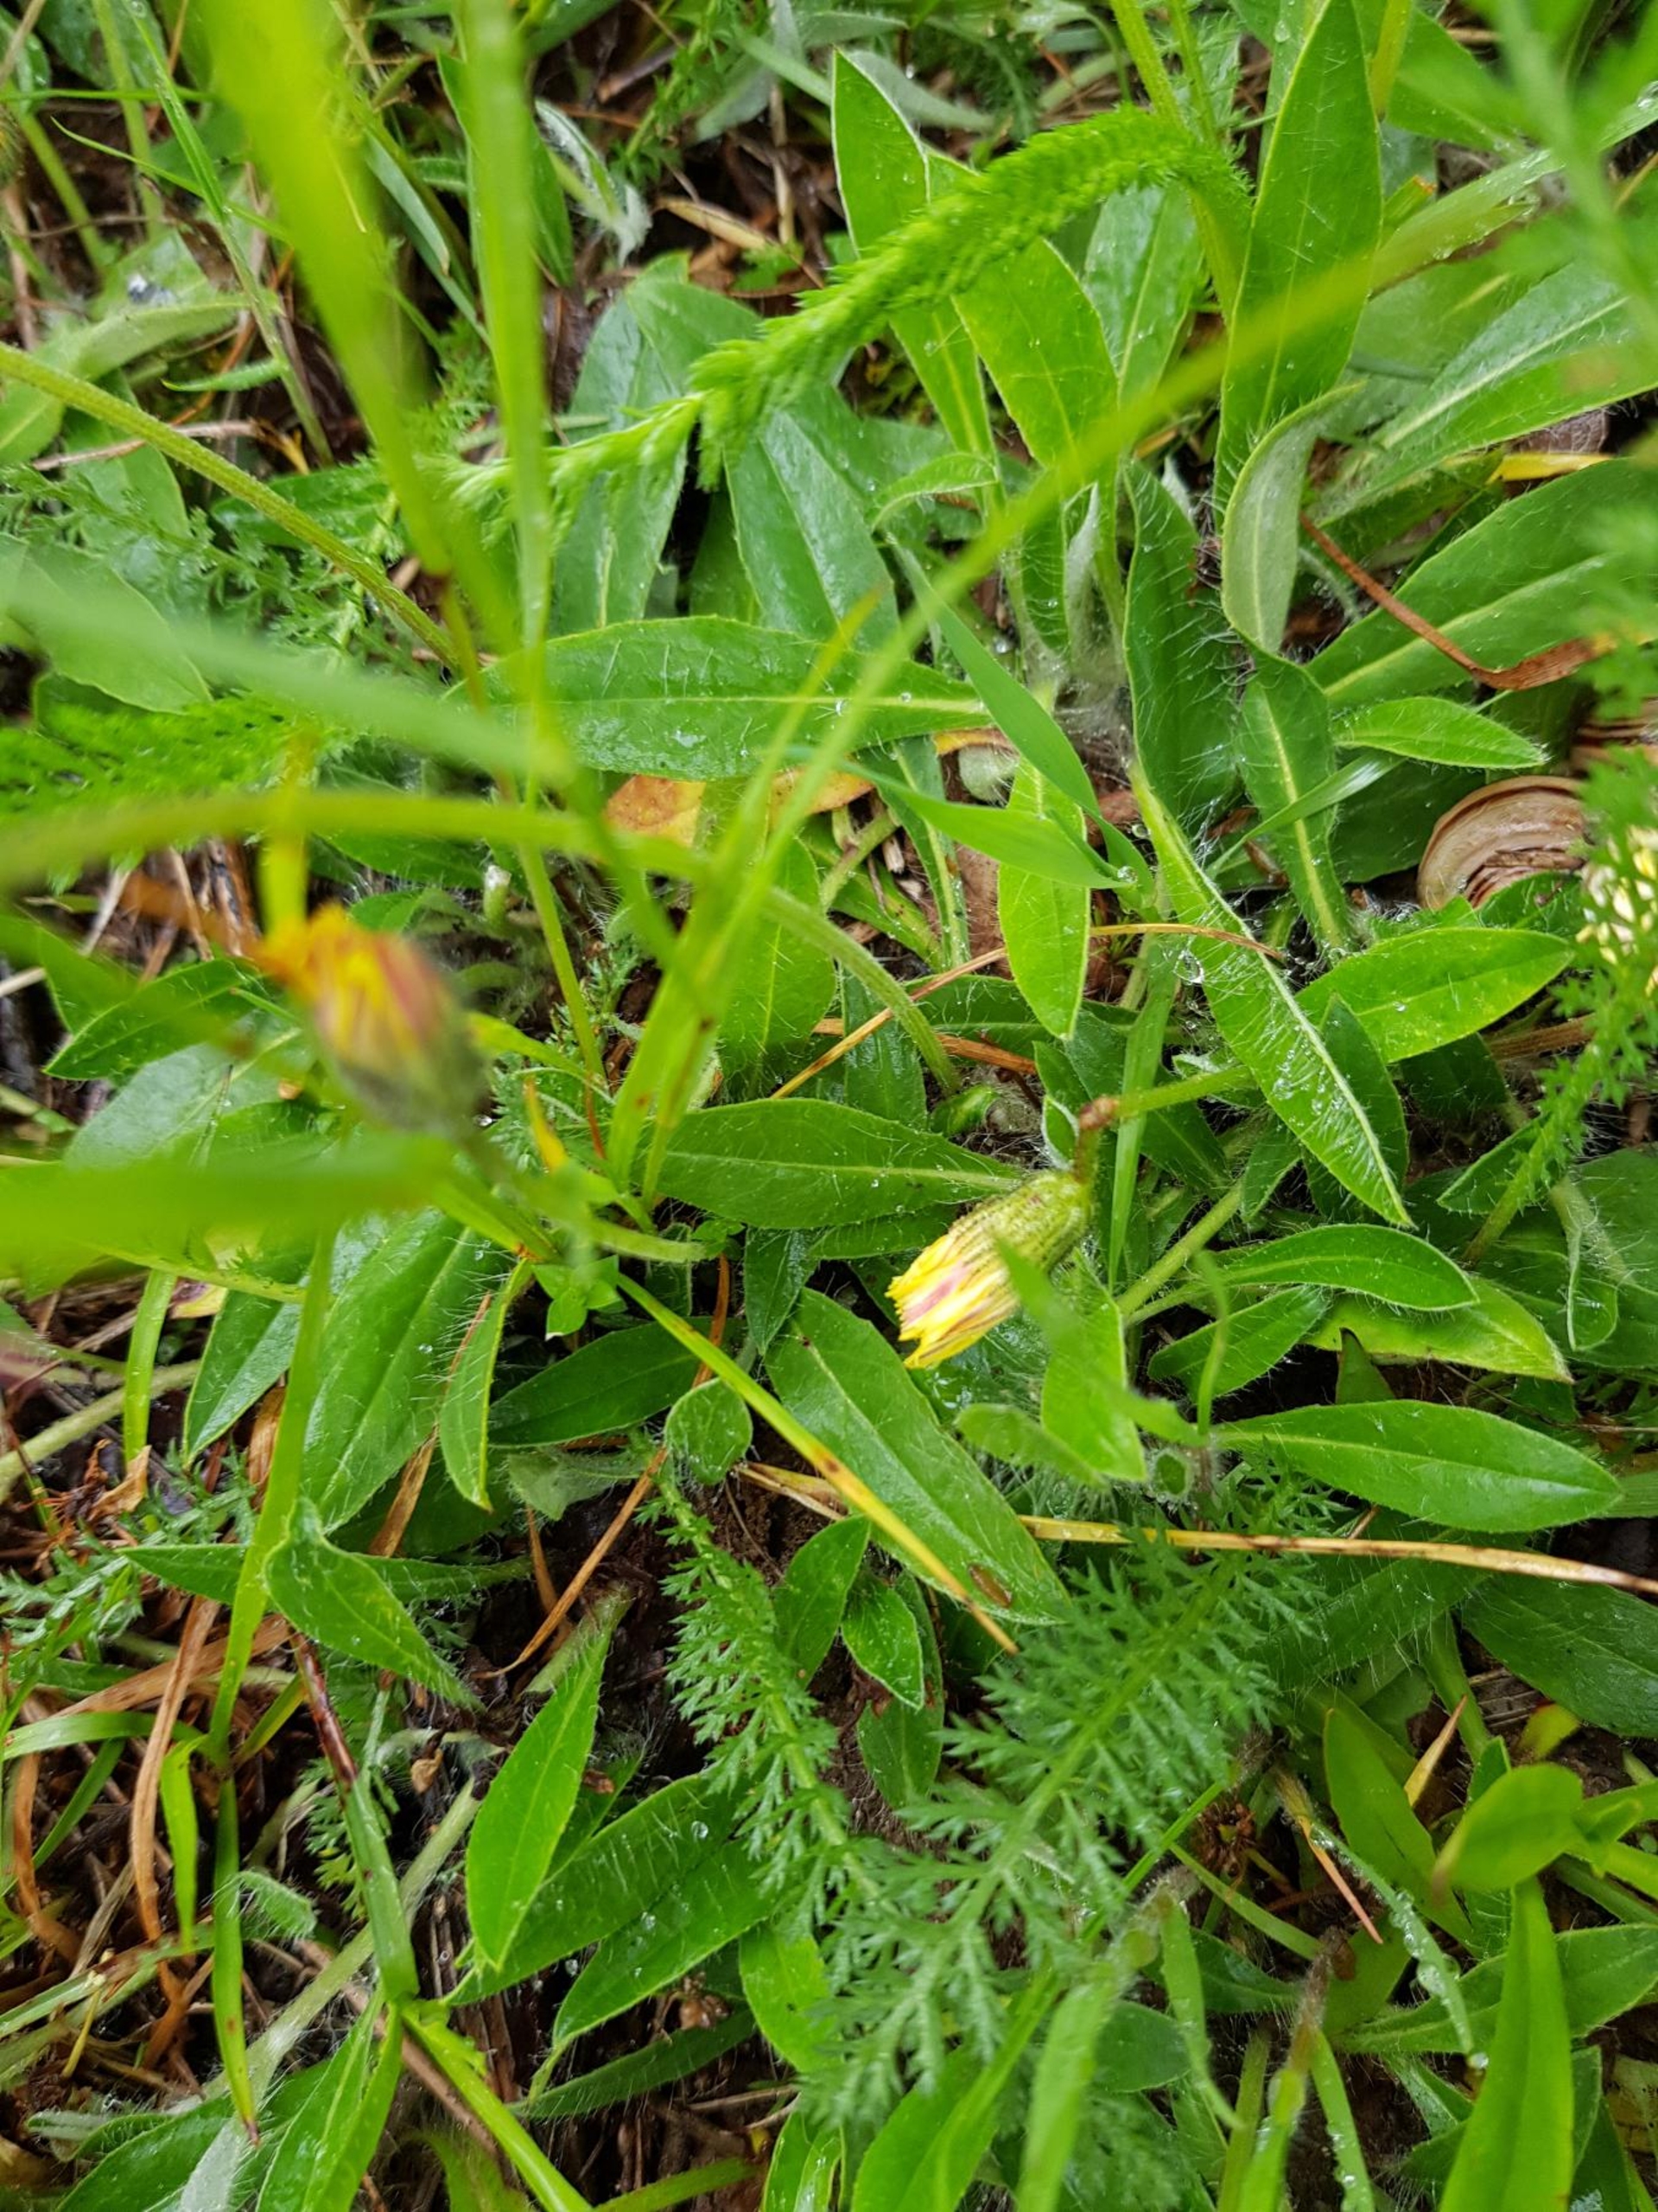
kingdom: Plantae
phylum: Tracheophyta
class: Magnoliopsida
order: Asterales
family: Asteraceae
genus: Pilosella
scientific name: Pilosella officinarum
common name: Håret høgeurt
